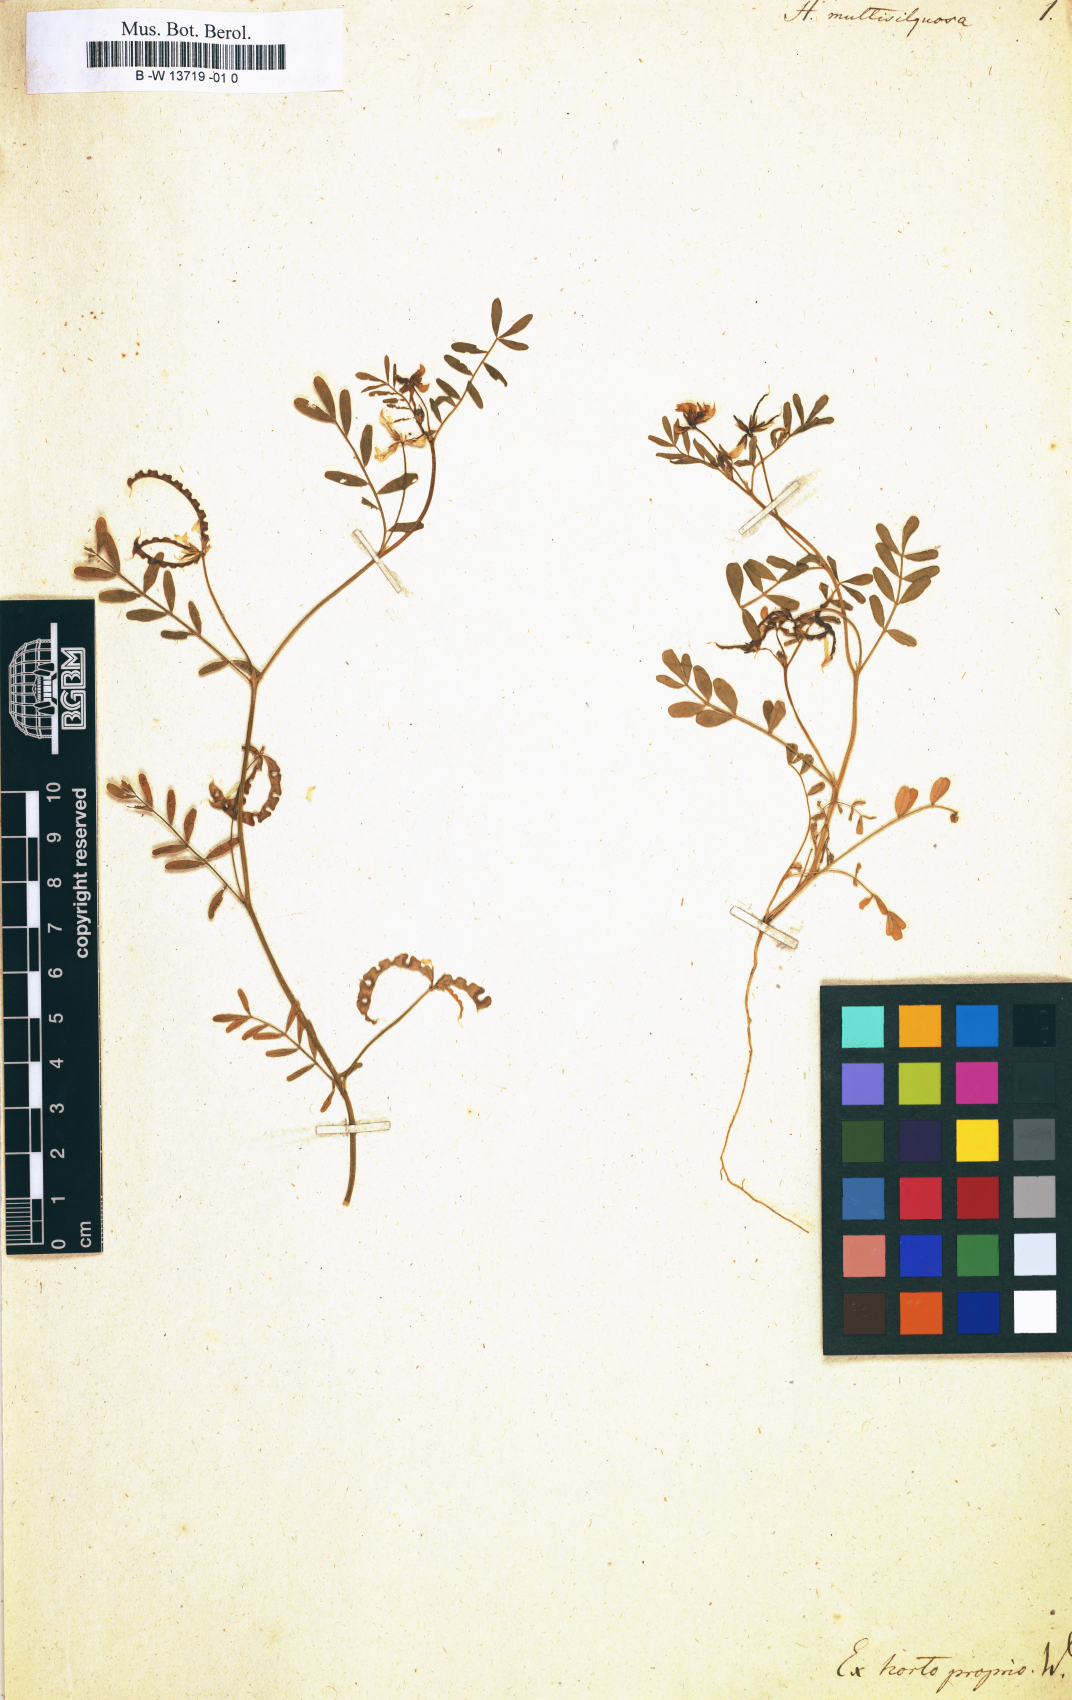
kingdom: Plantae
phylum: Tracheophyta
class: Magnoliopsida
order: Fabales
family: Fabaceae
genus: Hippocrepis
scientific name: Hippocrepis multisiliquosa
